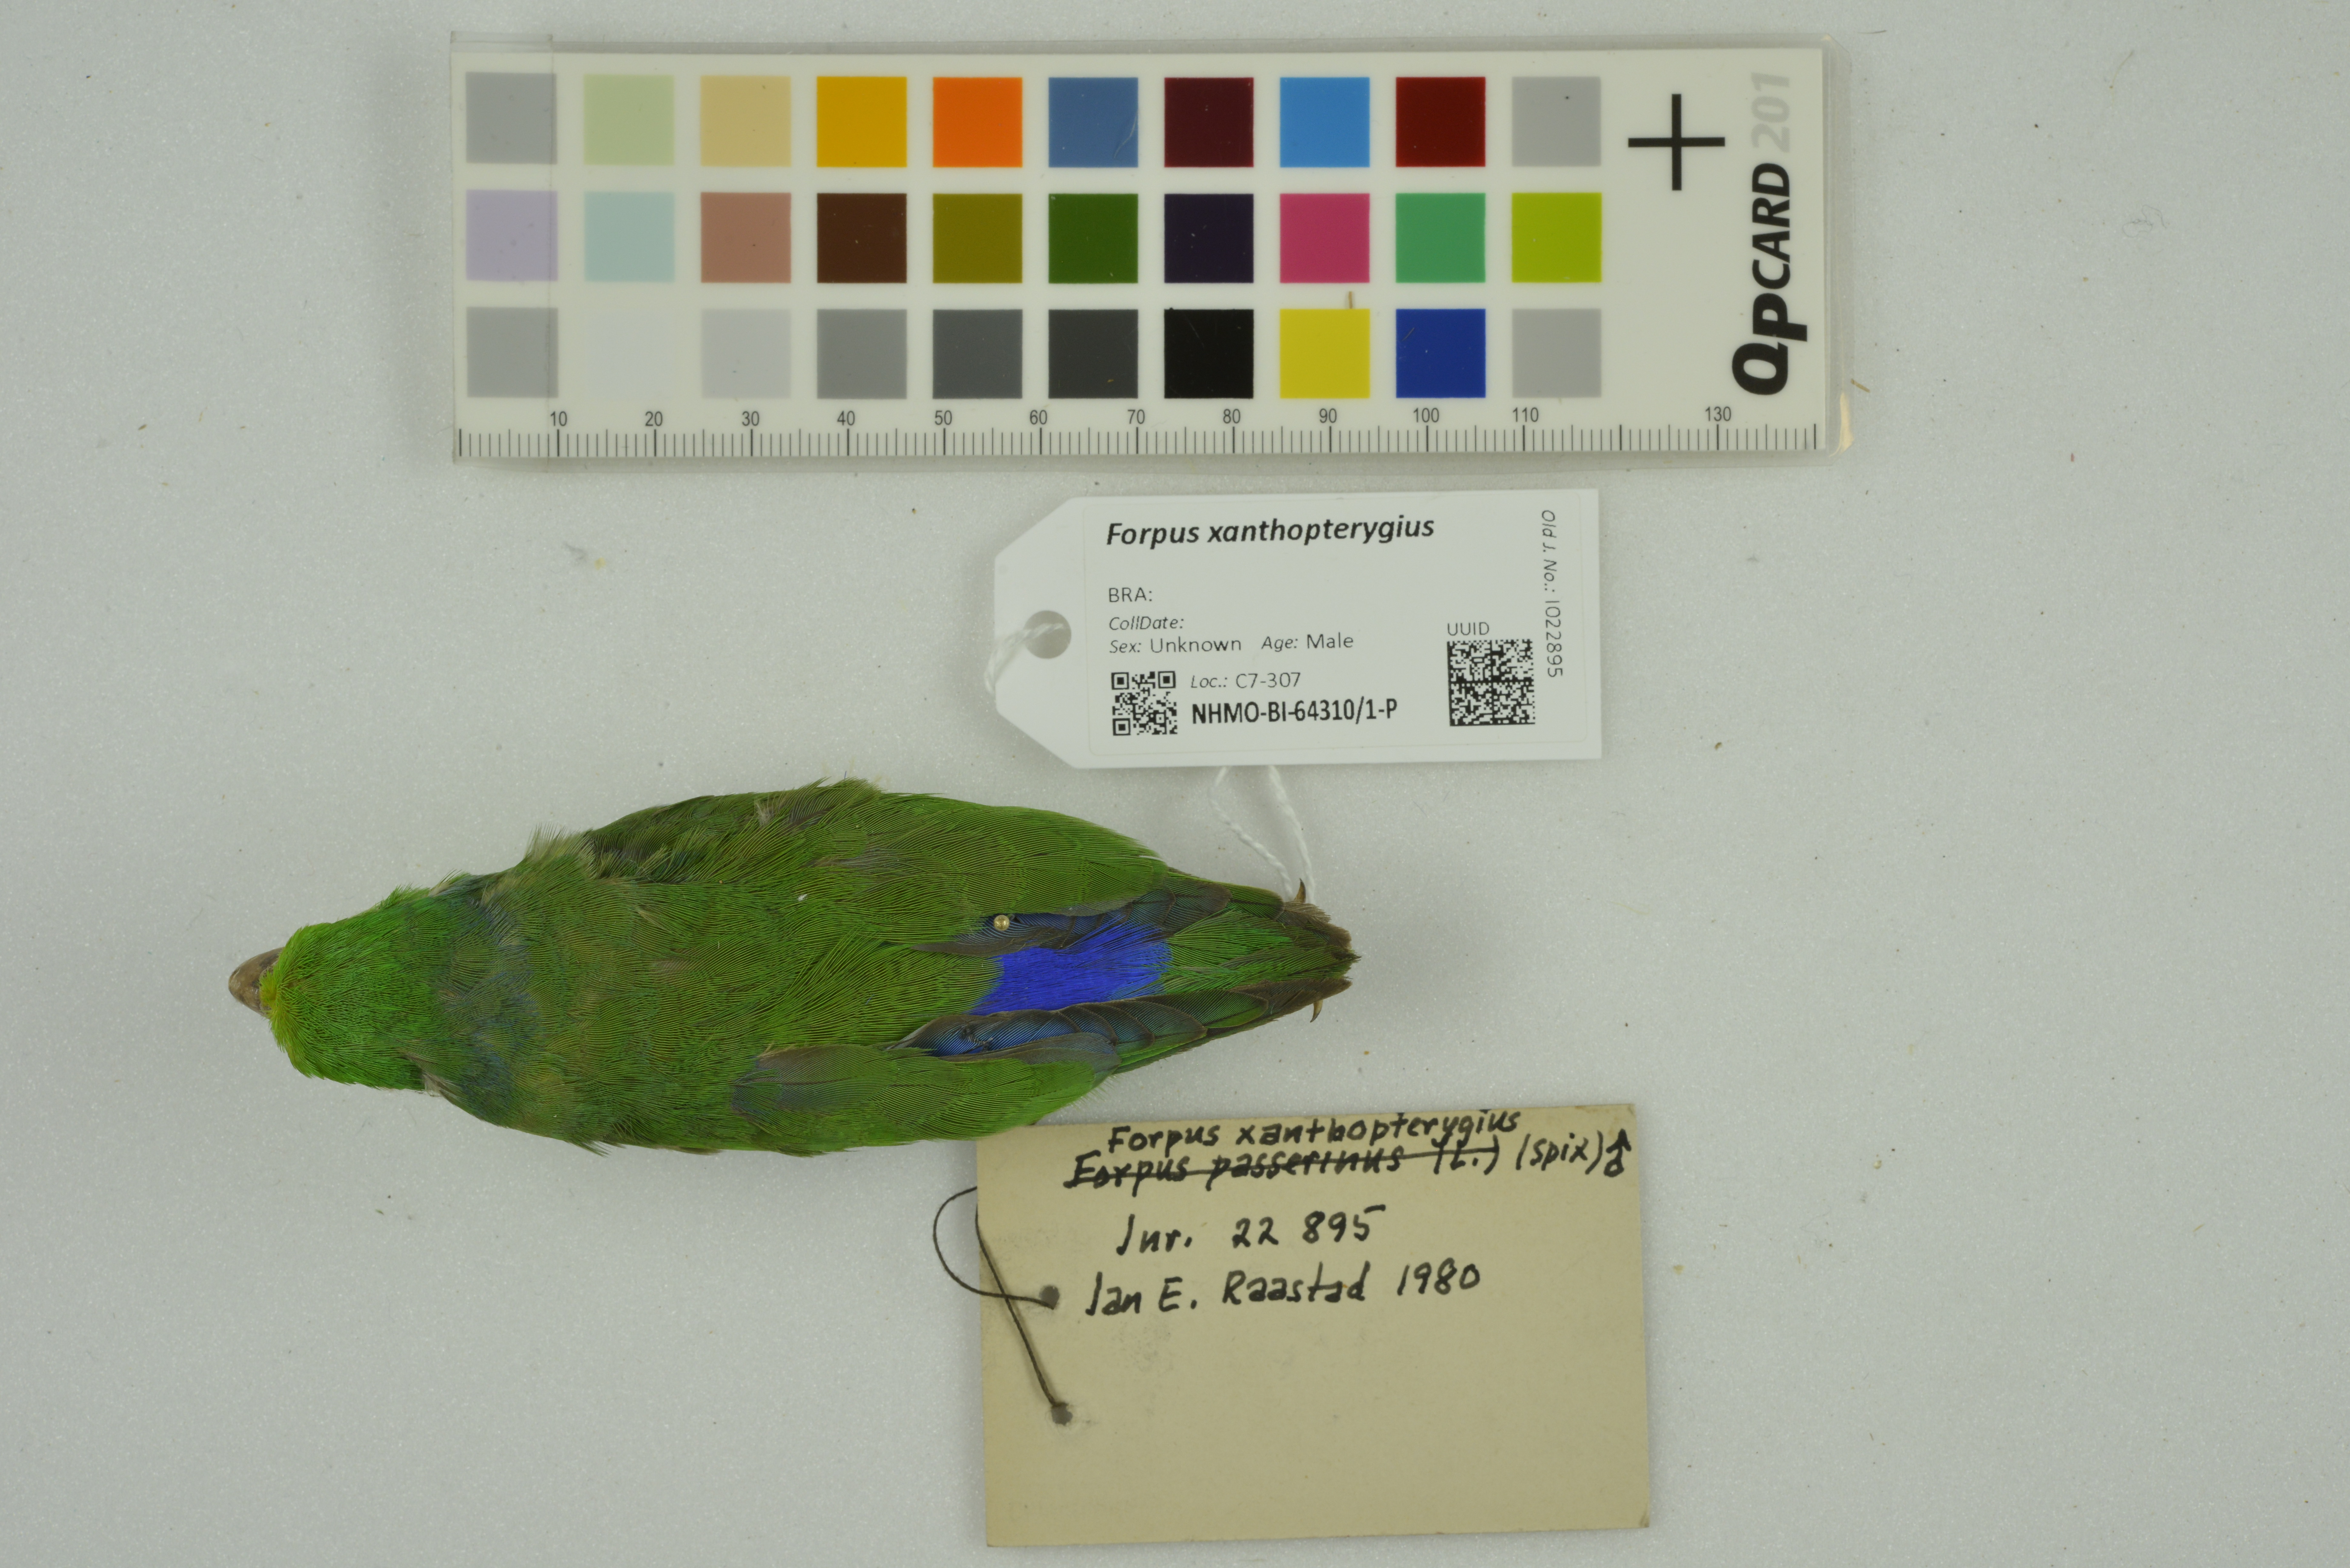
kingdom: Animalia
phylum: Chordata
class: Aves
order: Psittaciformes
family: Psittacidae
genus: Forpus
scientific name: Forpus xanthopterygius
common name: Blue-winged parrotlet
